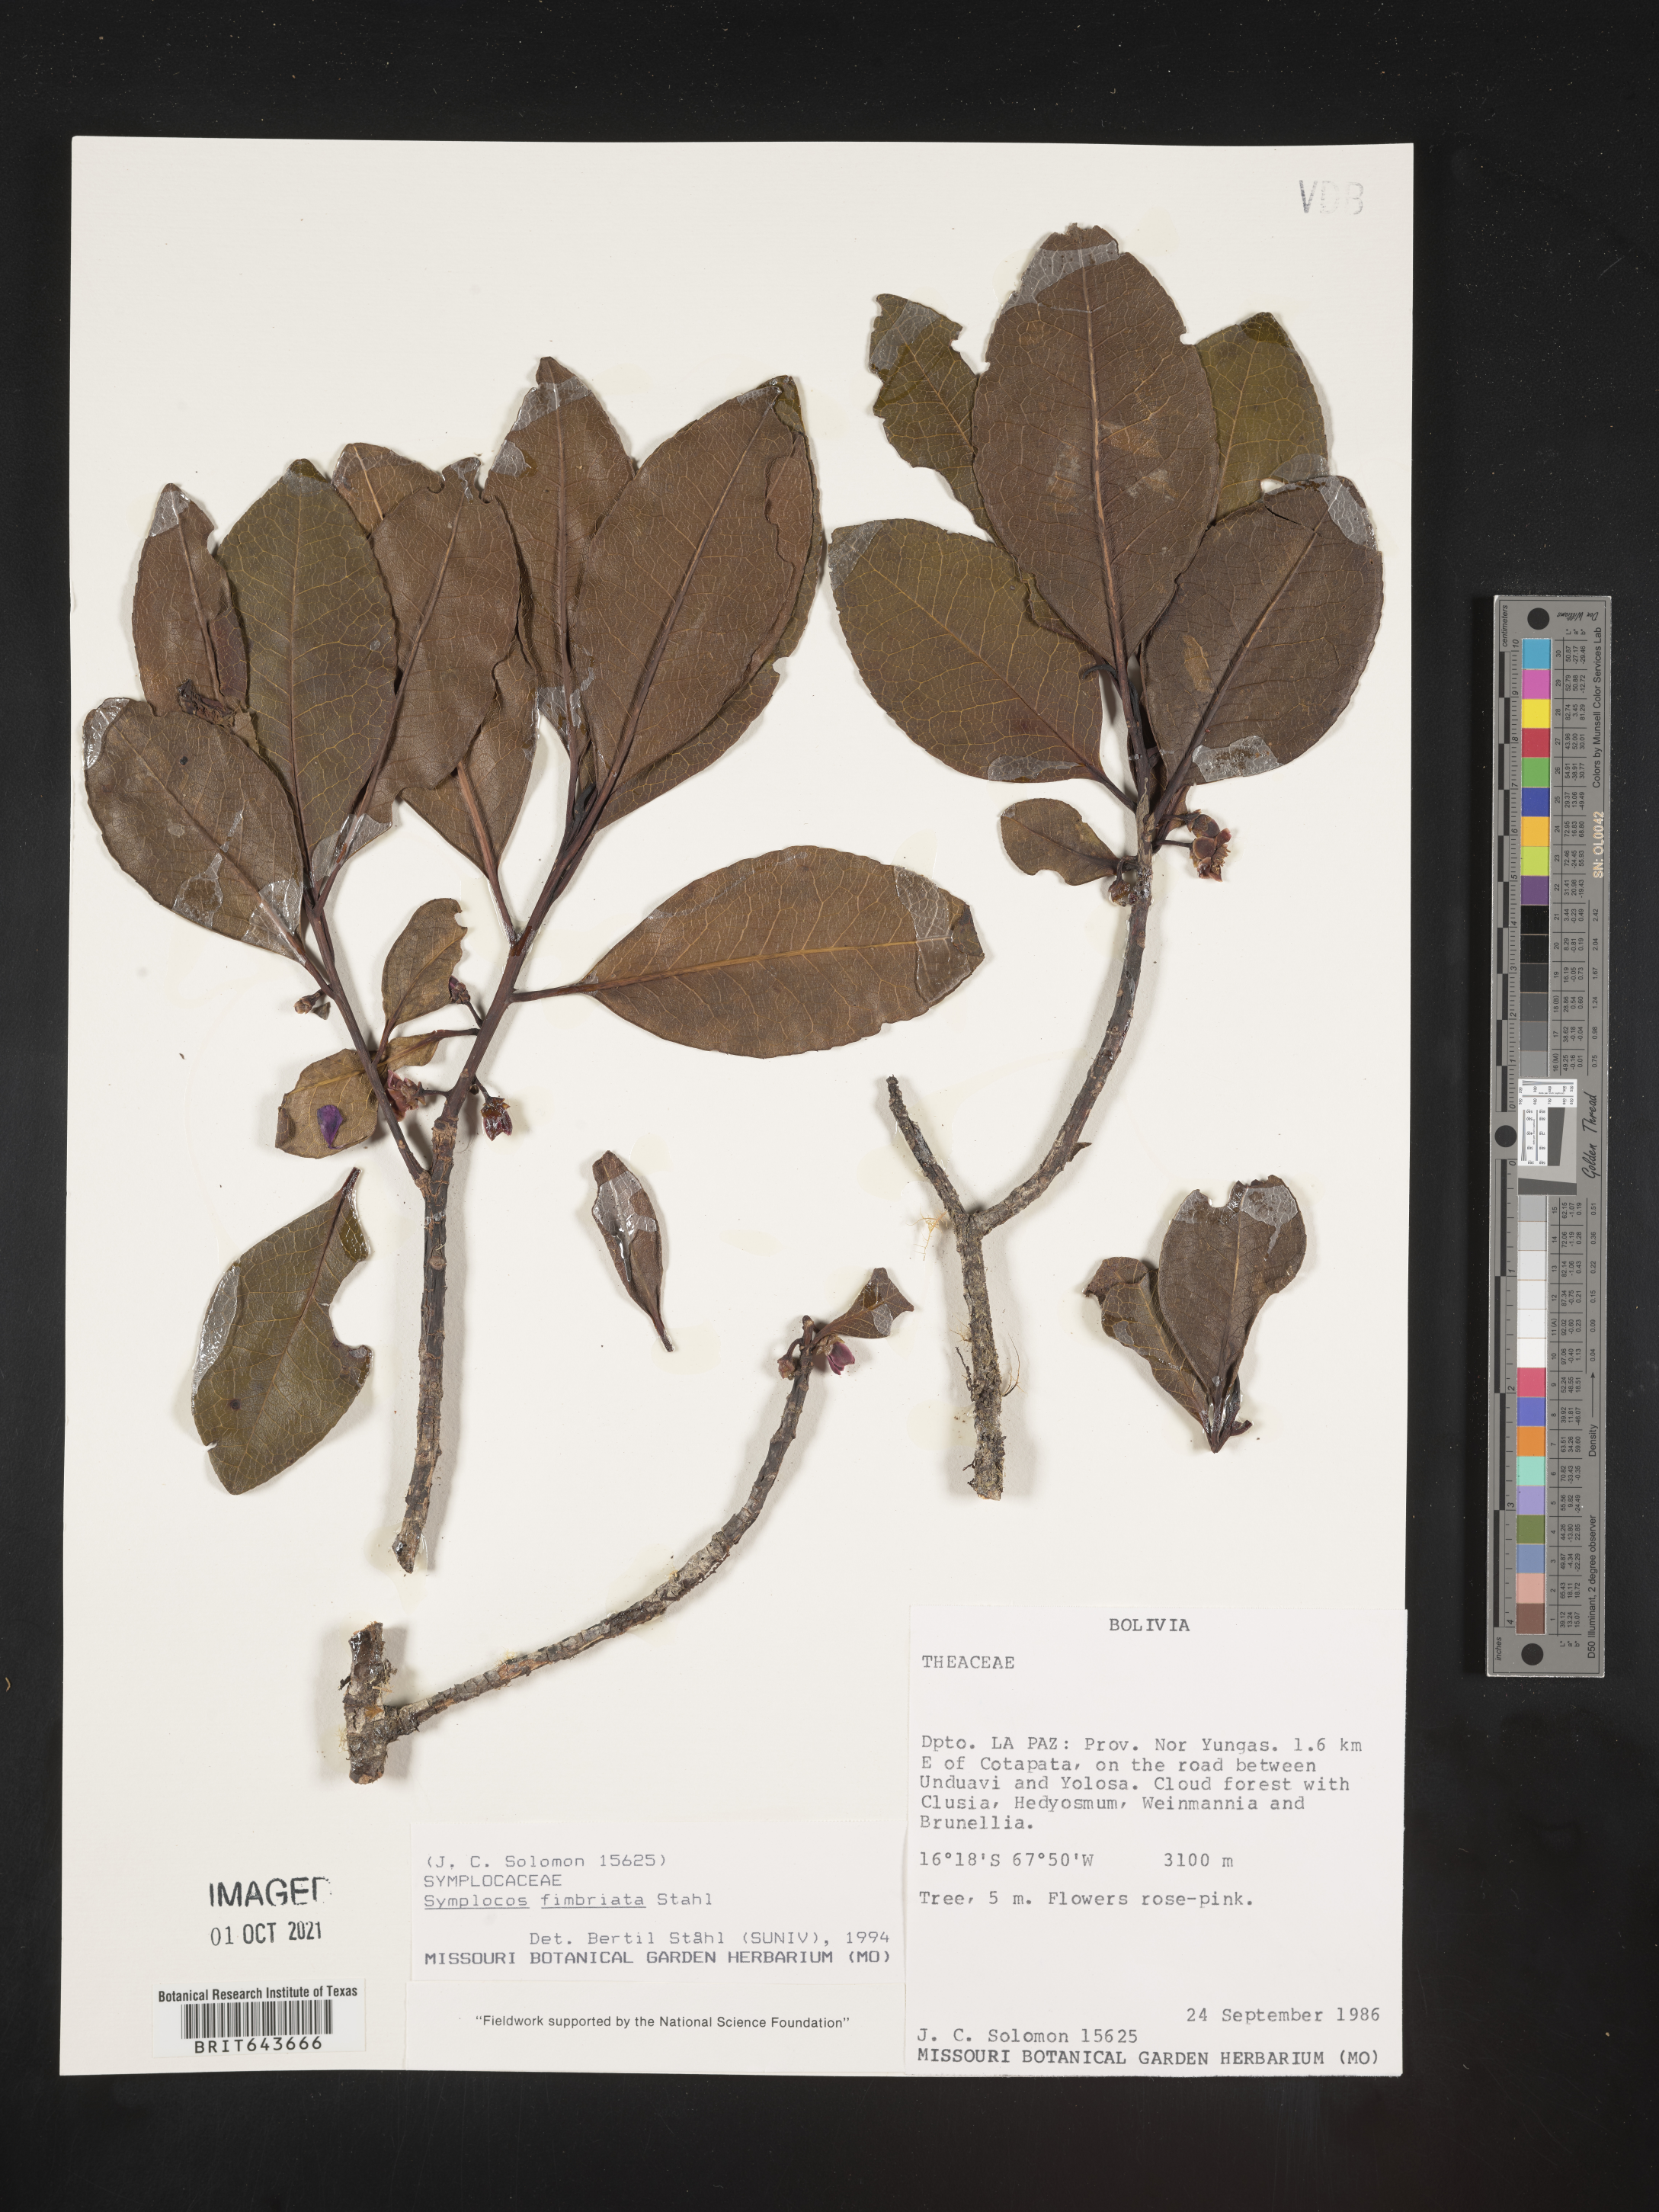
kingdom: Plantae
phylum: Tracheophyta
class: Magnoliopsida
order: Ericales
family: Symplocaceae
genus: Symplocos
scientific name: Symplocos
